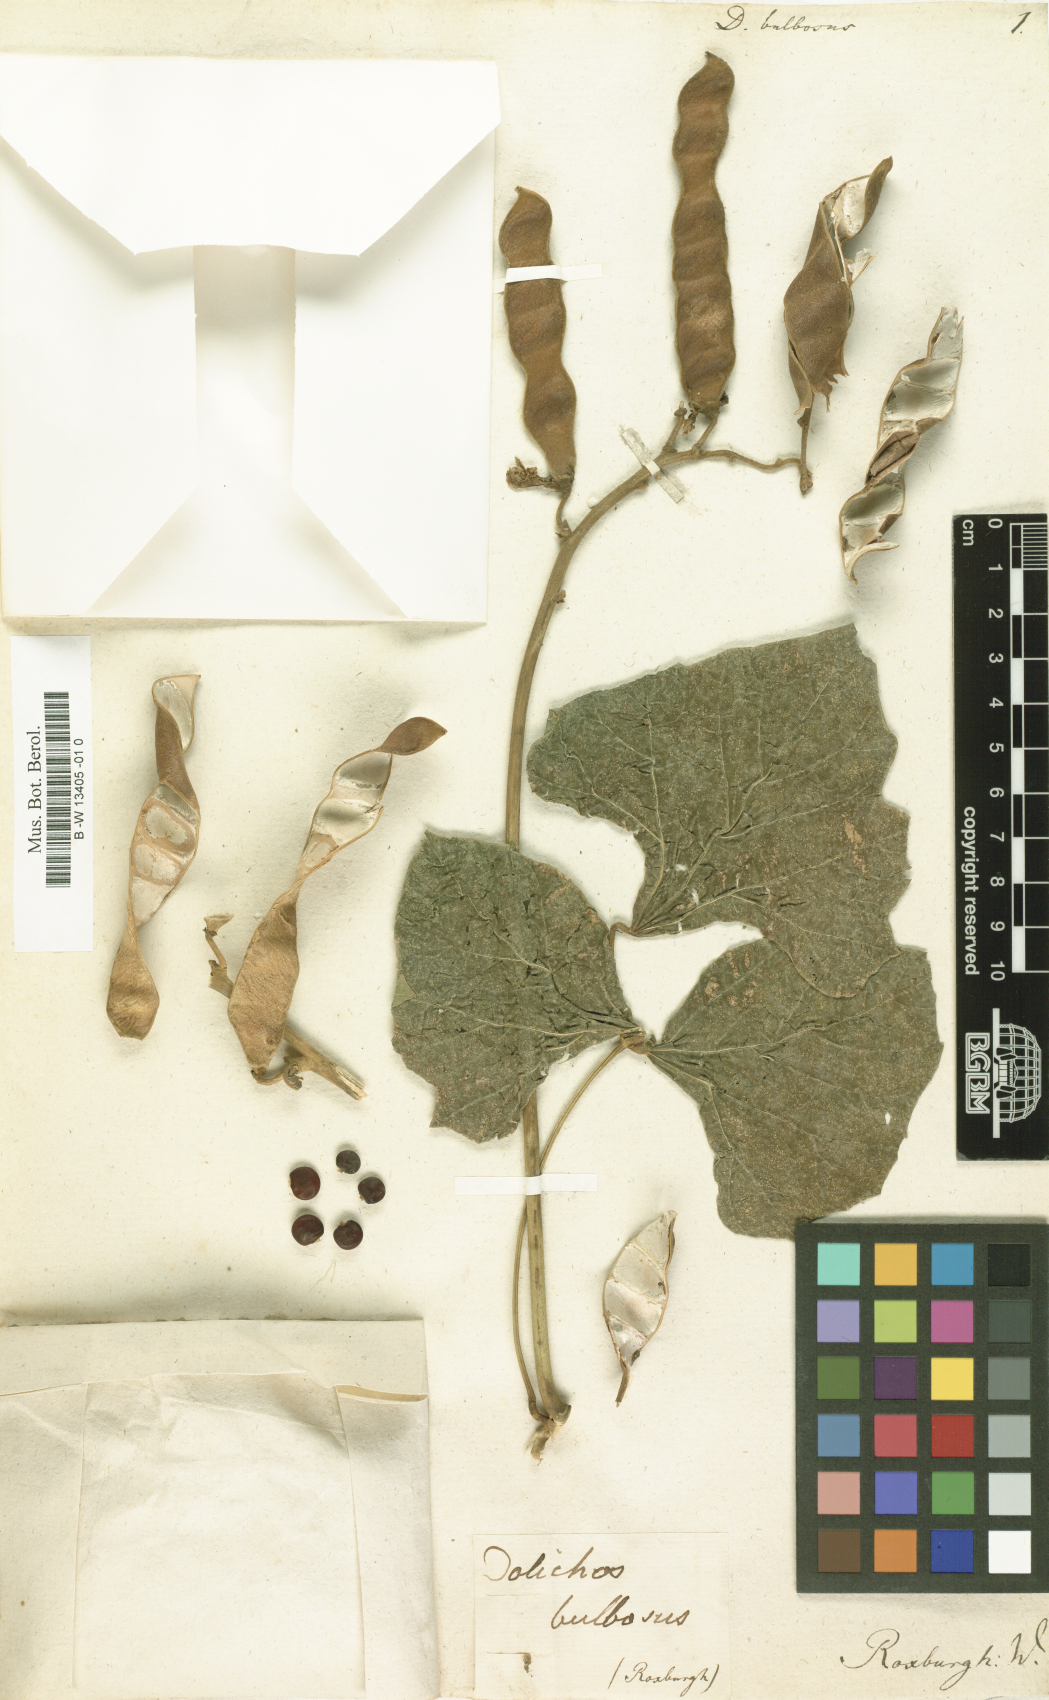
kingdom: Plantae
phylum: Tracheophyta
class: Magnoliopsida
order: Fabales
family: Fabaceae
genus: Pachyrhizus
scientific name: Pachyrhizus erosus
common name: Yam bean
